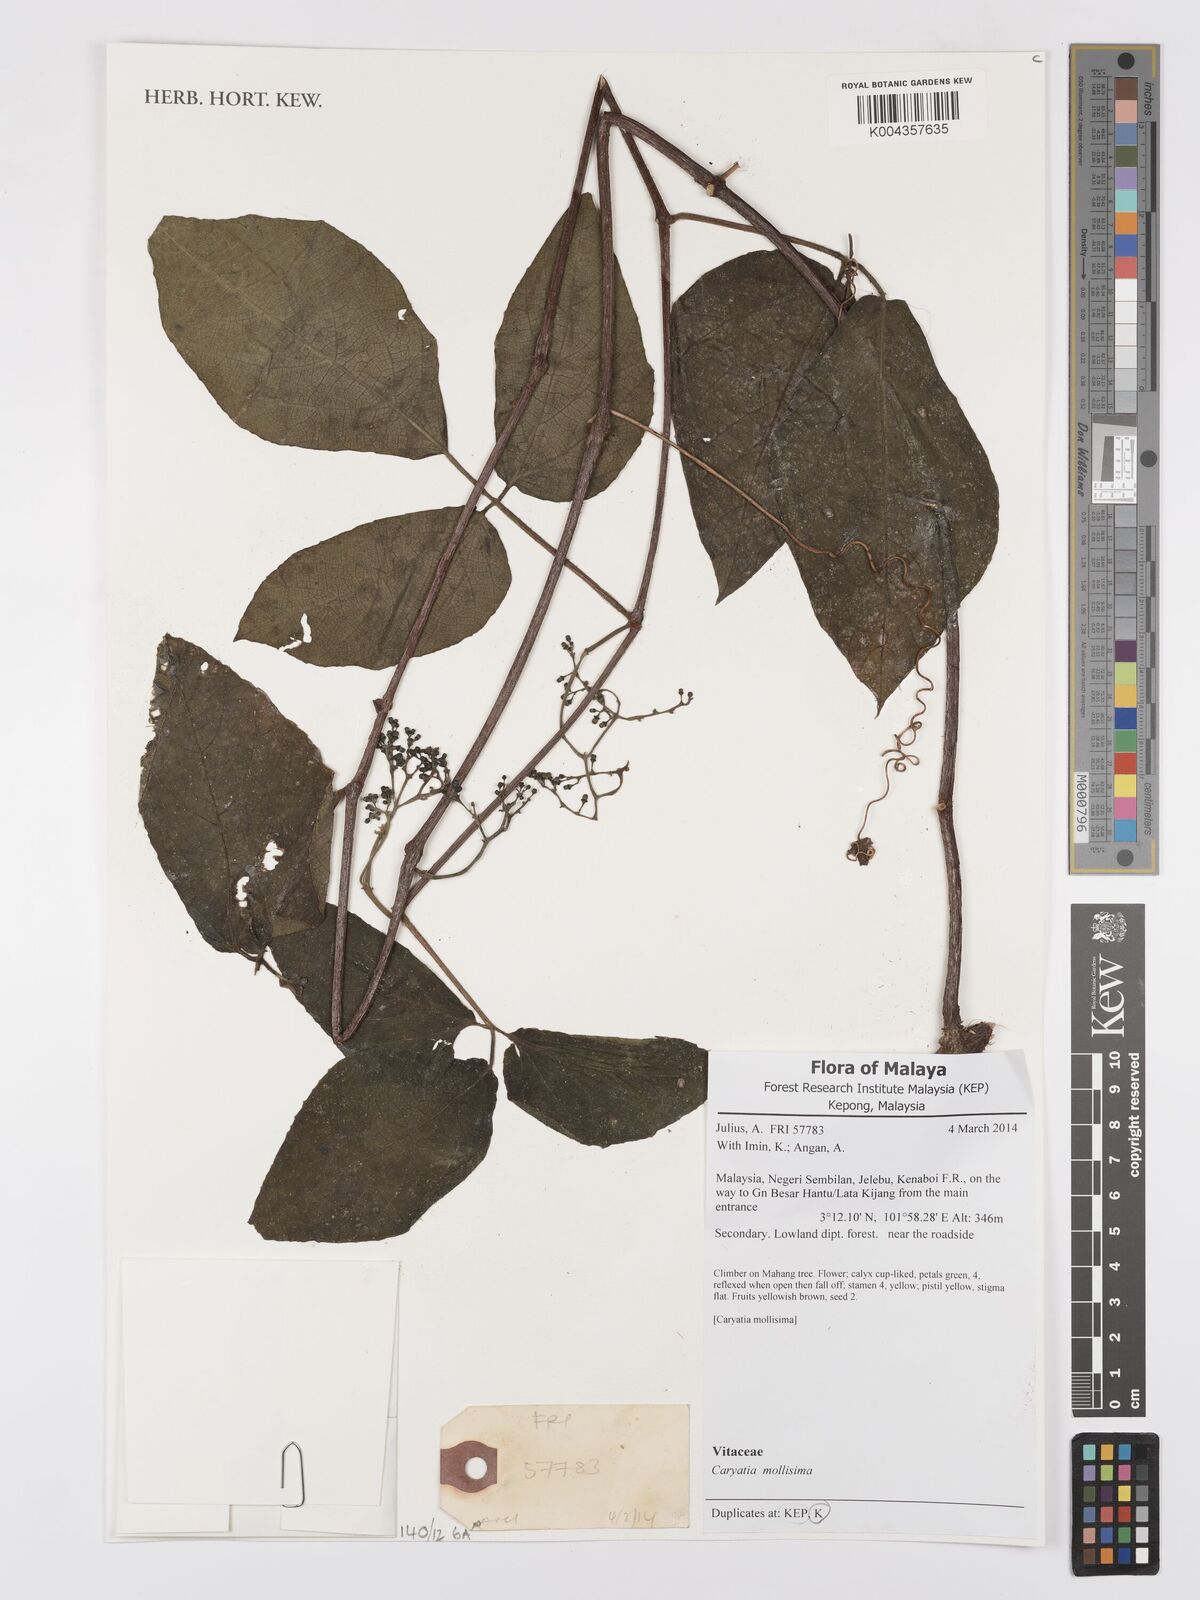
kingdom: Plantae
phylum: Tracheophyta
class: Magnoliopsida
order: Vitales
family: Vitaceae
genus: Cayratia
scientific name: Cayratia mollissima
